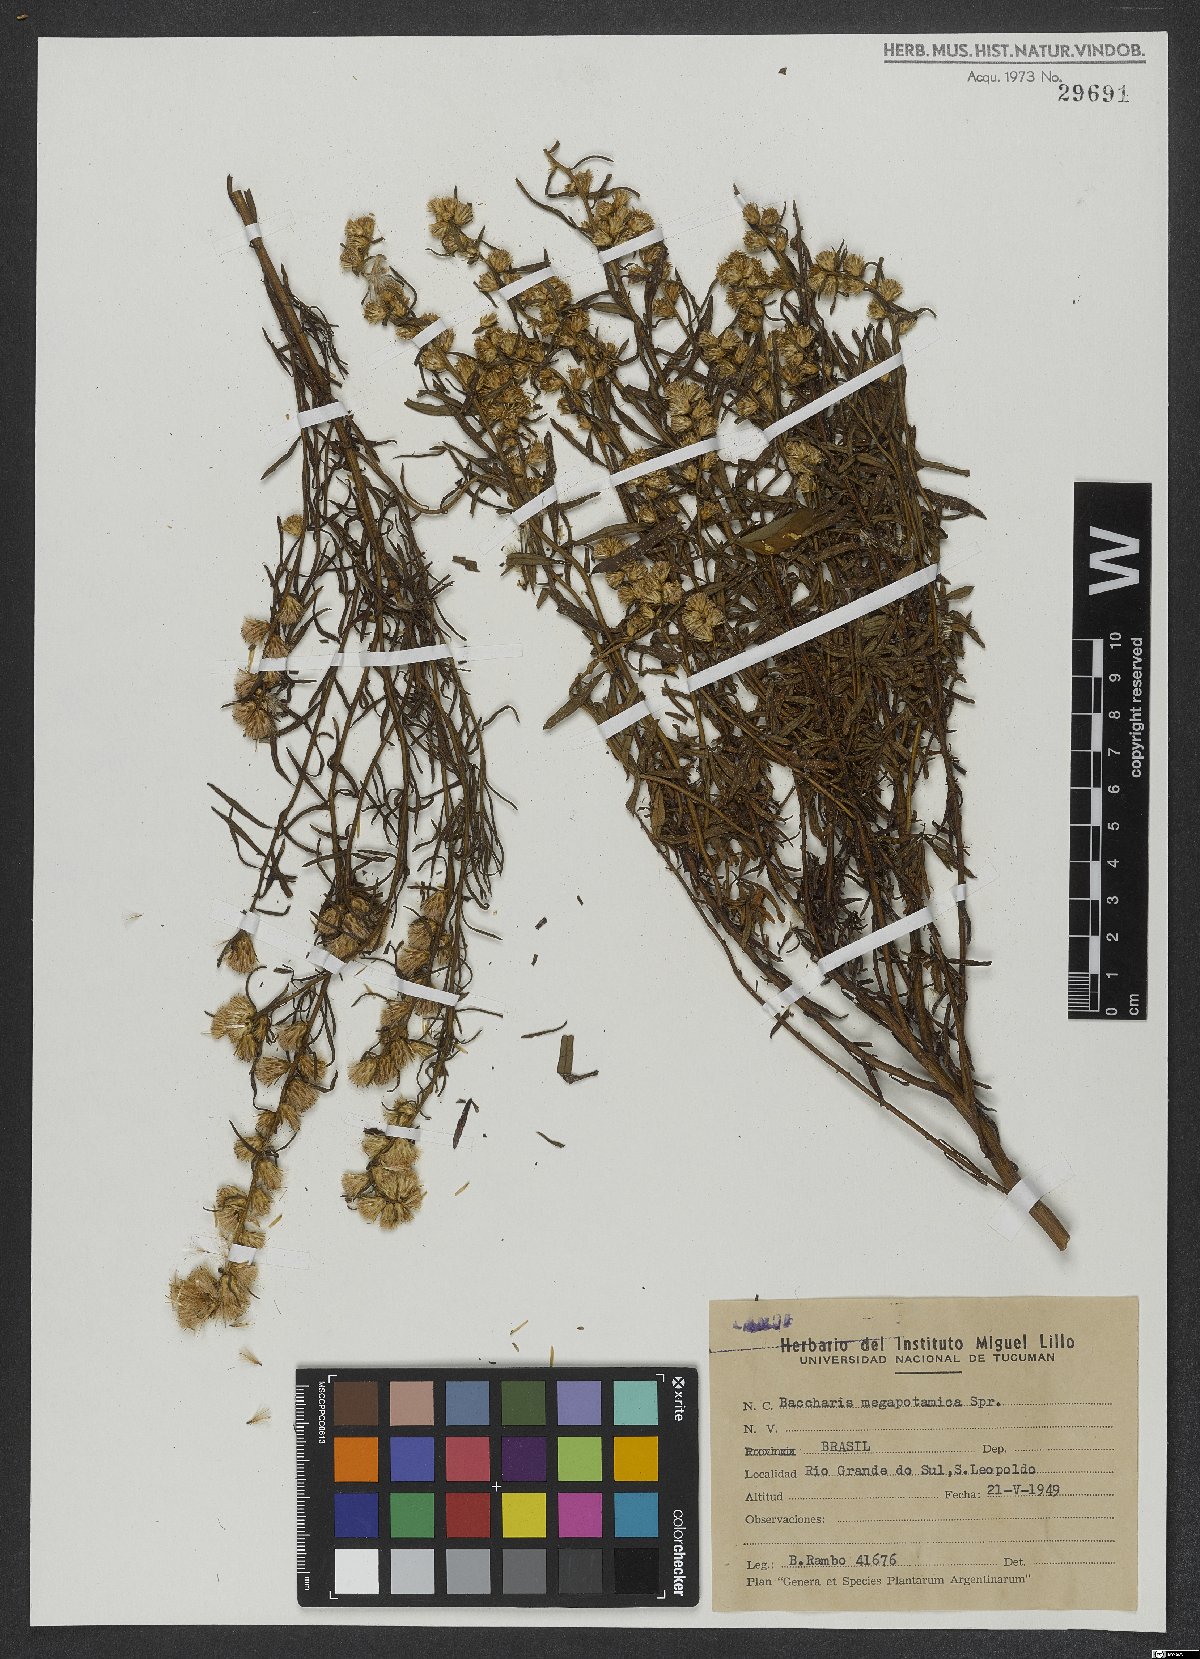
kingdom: Plantae
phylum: Tracheophyta
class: Magnoliopsida
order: Asterales
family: Asteraceae
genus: Baccharis
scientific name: Baccharis megapotamica
